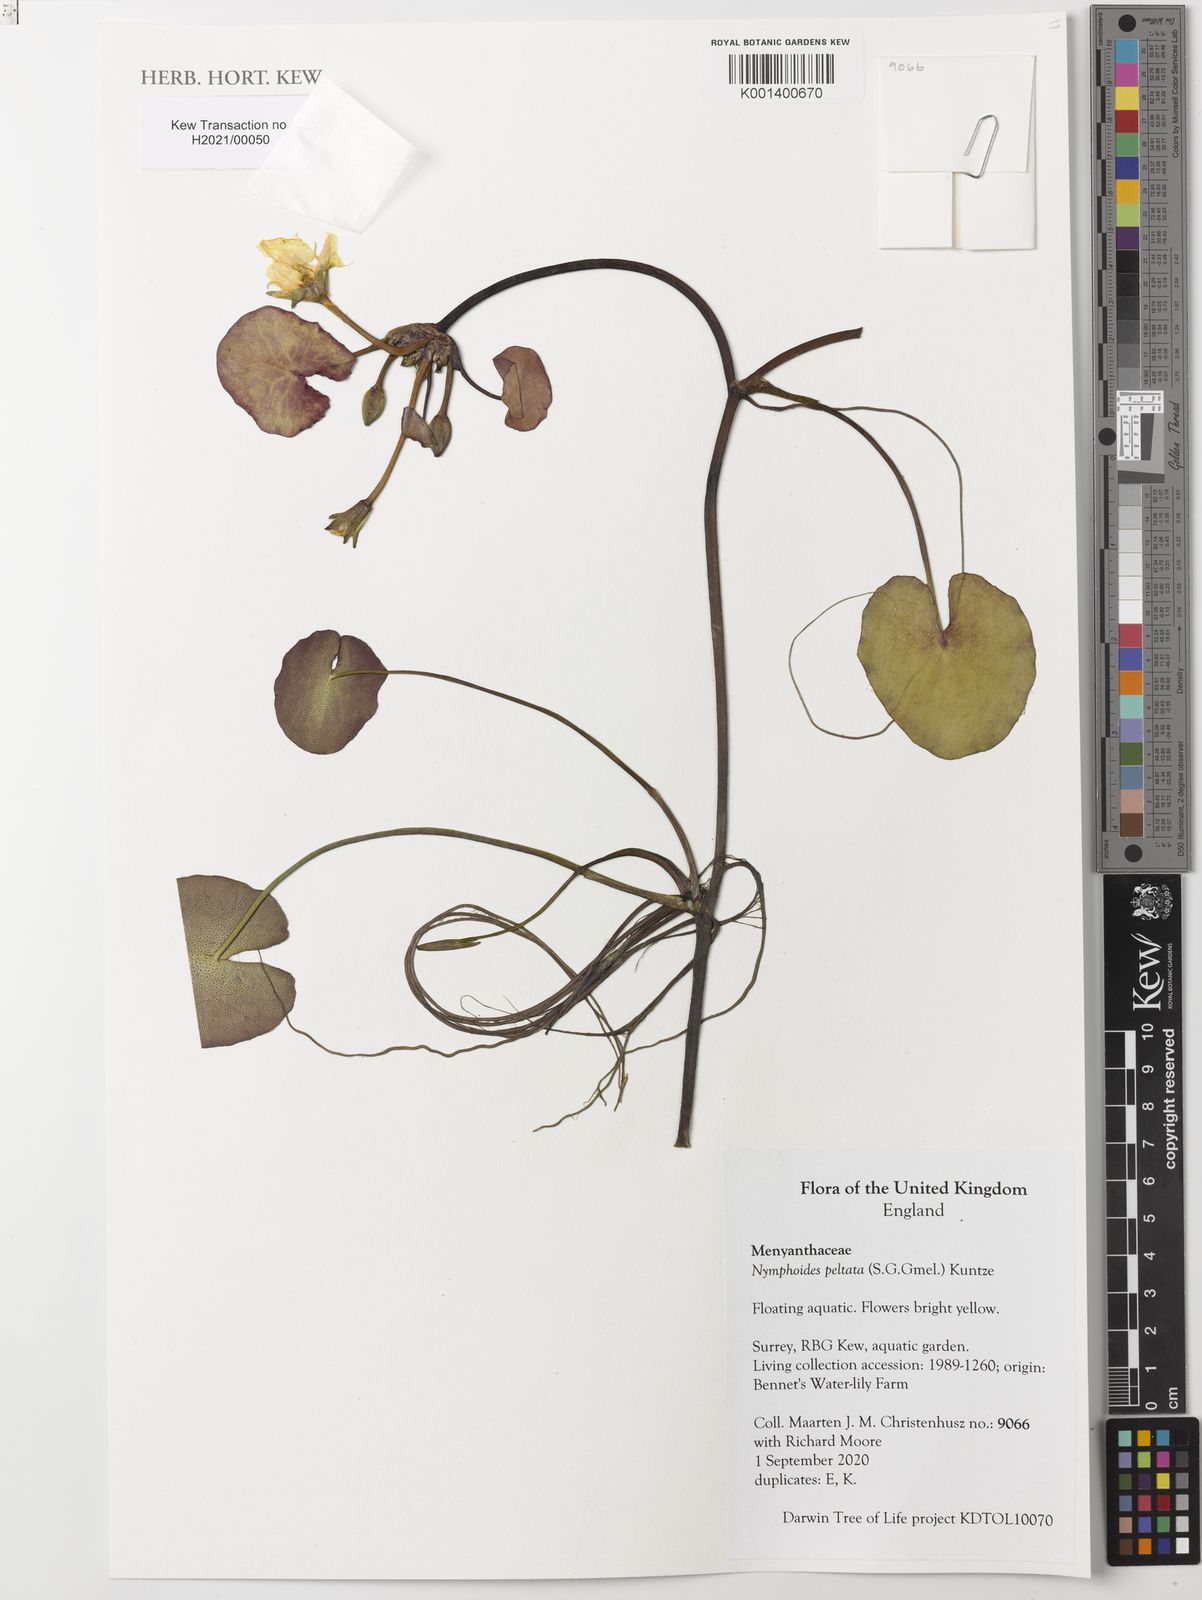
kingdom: Plantae
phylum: Tracheophyta
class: Magnoliopsida
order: Asterales
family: Menyanthaceae
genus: Nymphoides
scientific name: Nymphoides peltata
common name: Fringed water-lily
